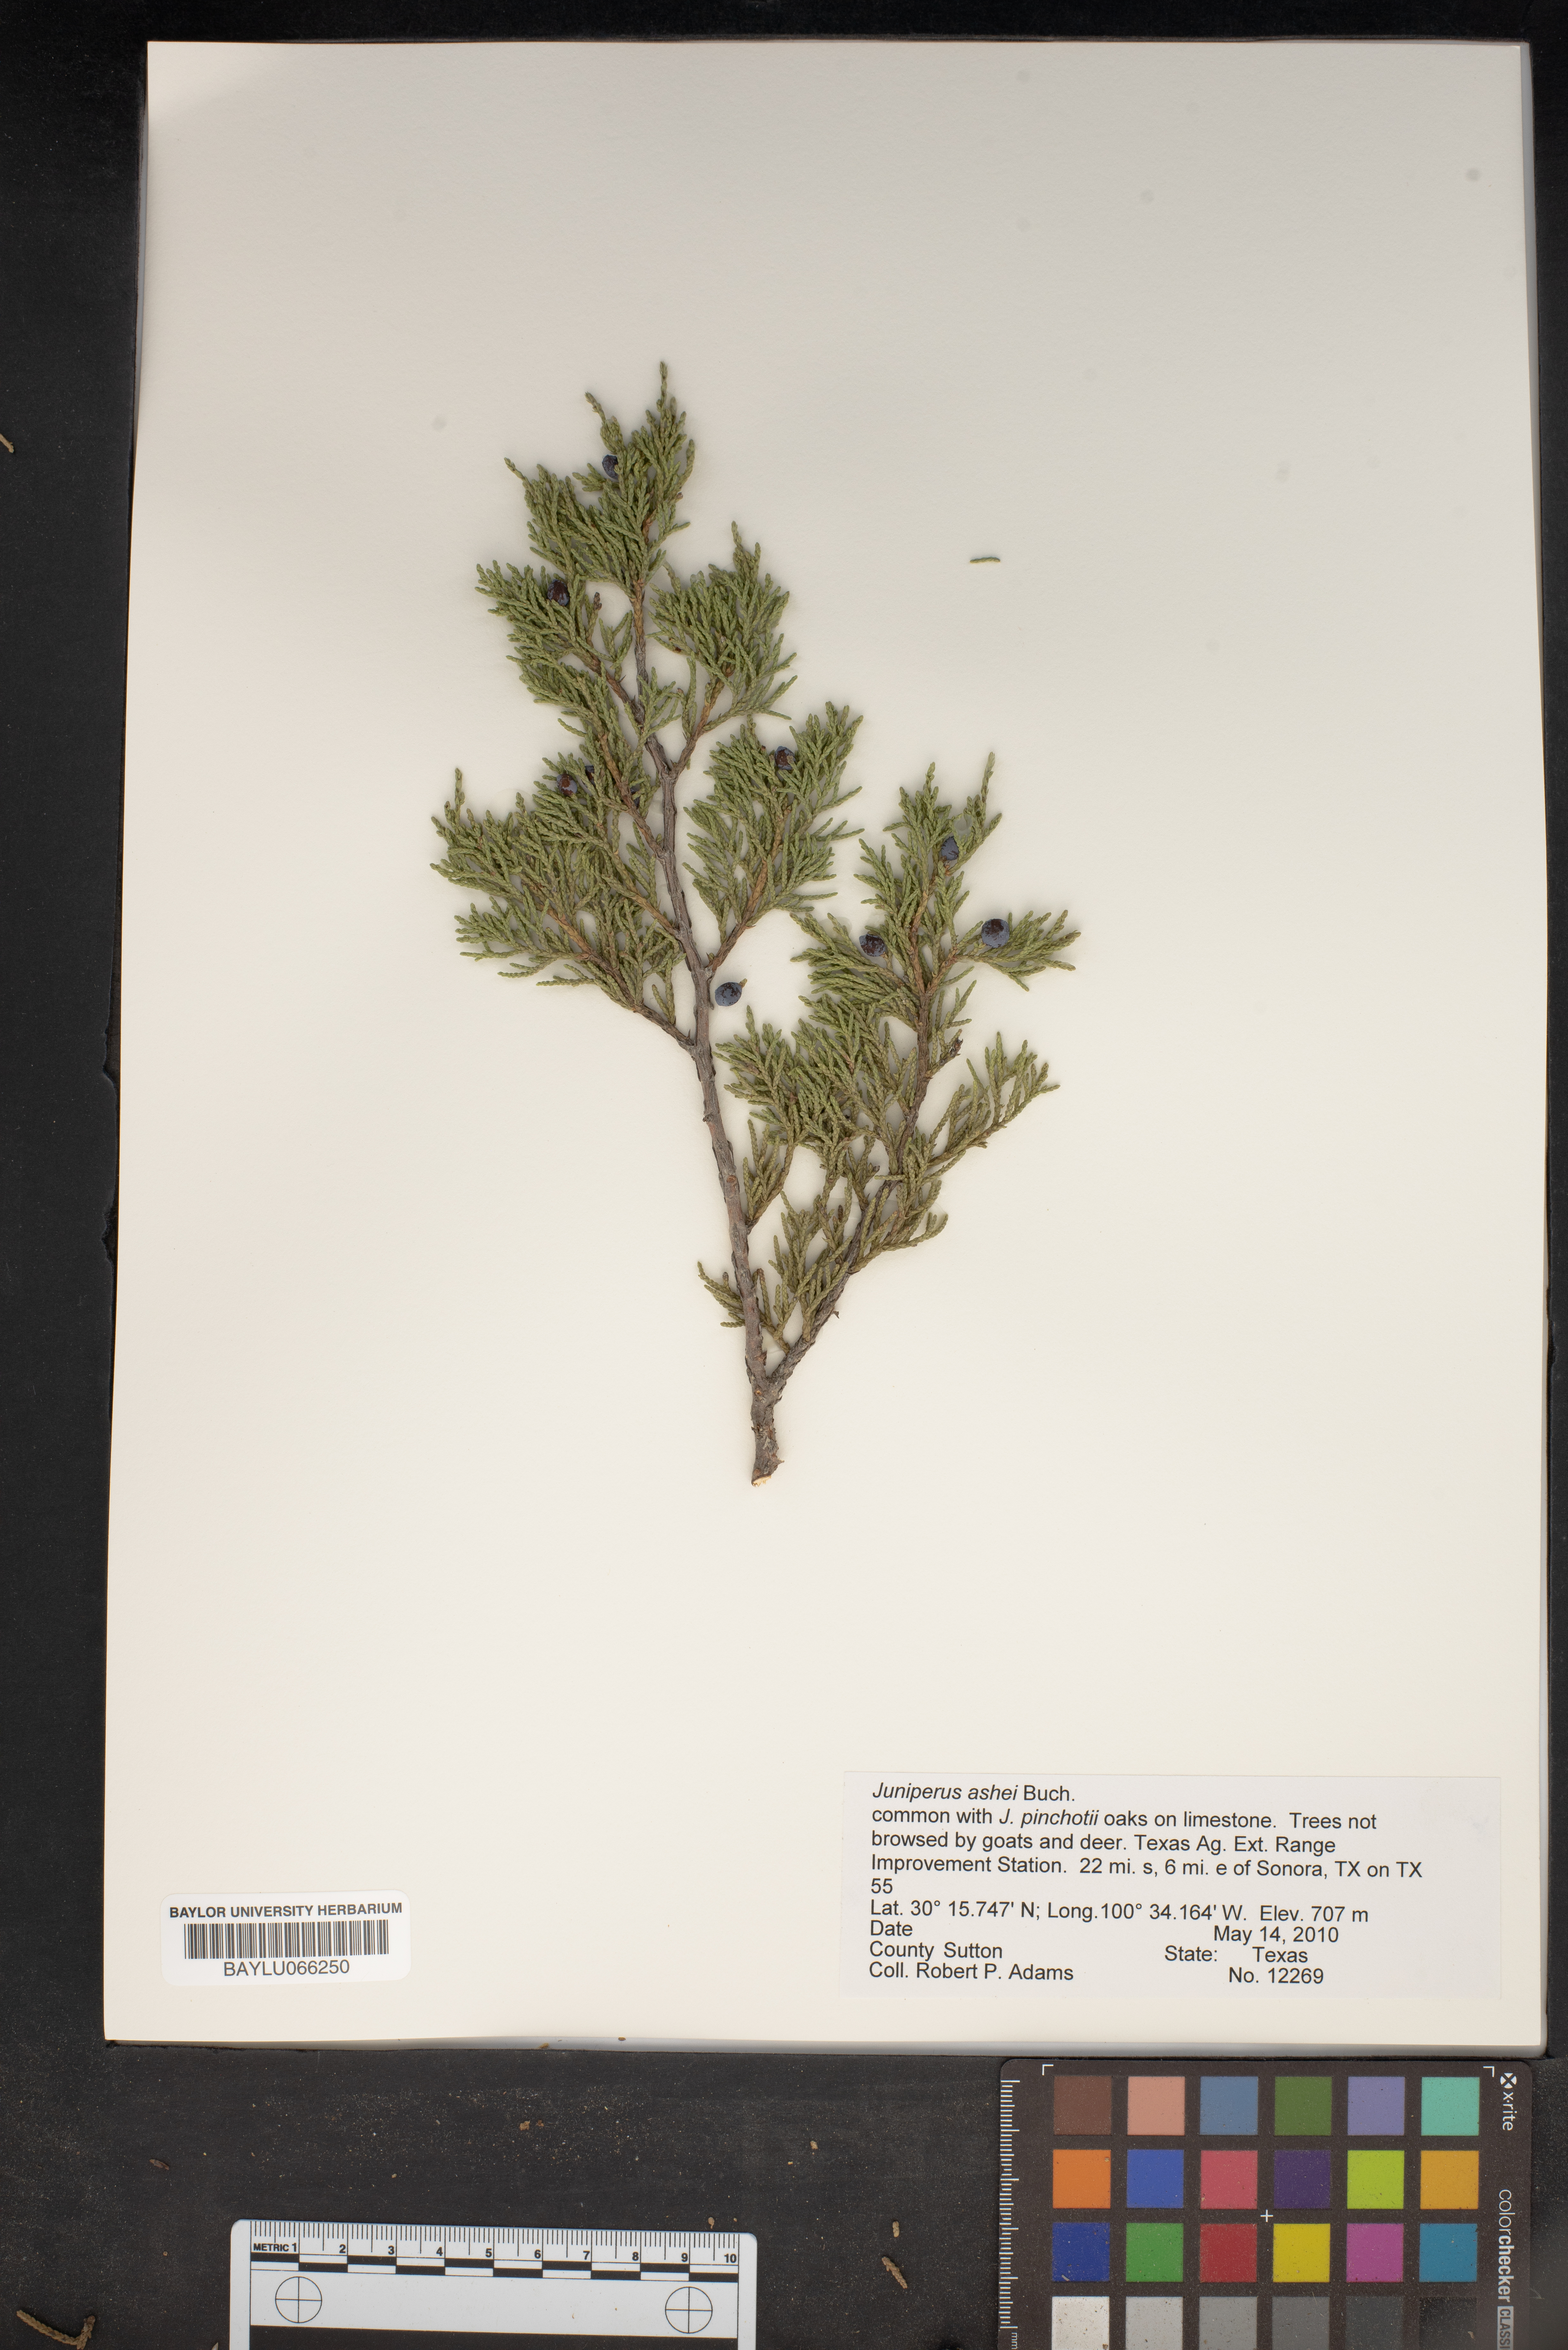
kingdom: Plantae
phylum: Tracheophyta
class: Pinopsida
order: Pinales
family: Cupressaceae
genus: Juniperus
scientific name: Juniperus ashei
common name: Mexican juniper
